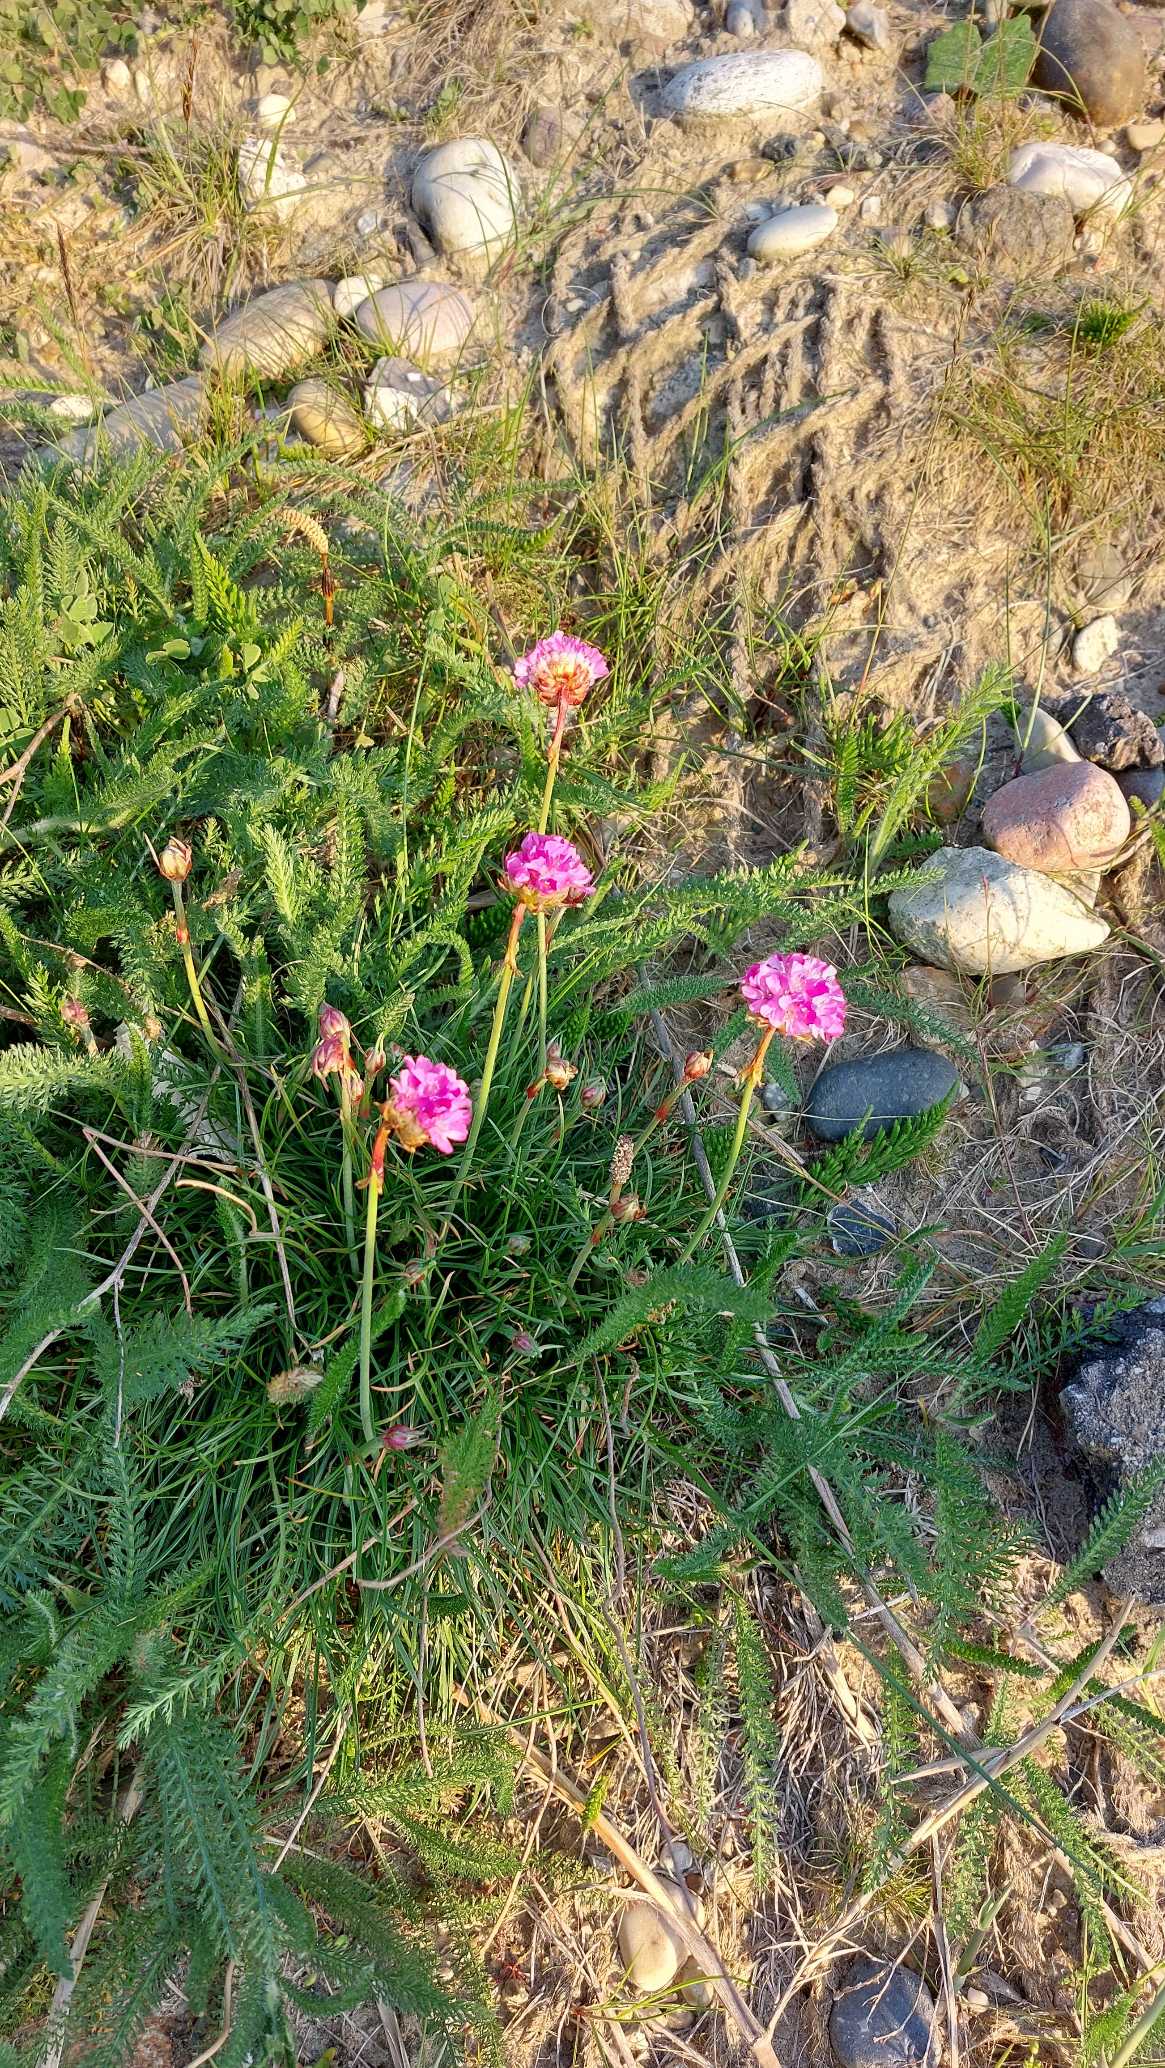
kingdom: Plantae
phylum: Tracheophyta
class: Magnoliopsida
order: Caryophyllales
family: Plumbaginaceae
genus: Armeria
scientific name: Armeria maritima
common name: Engelskgræs
